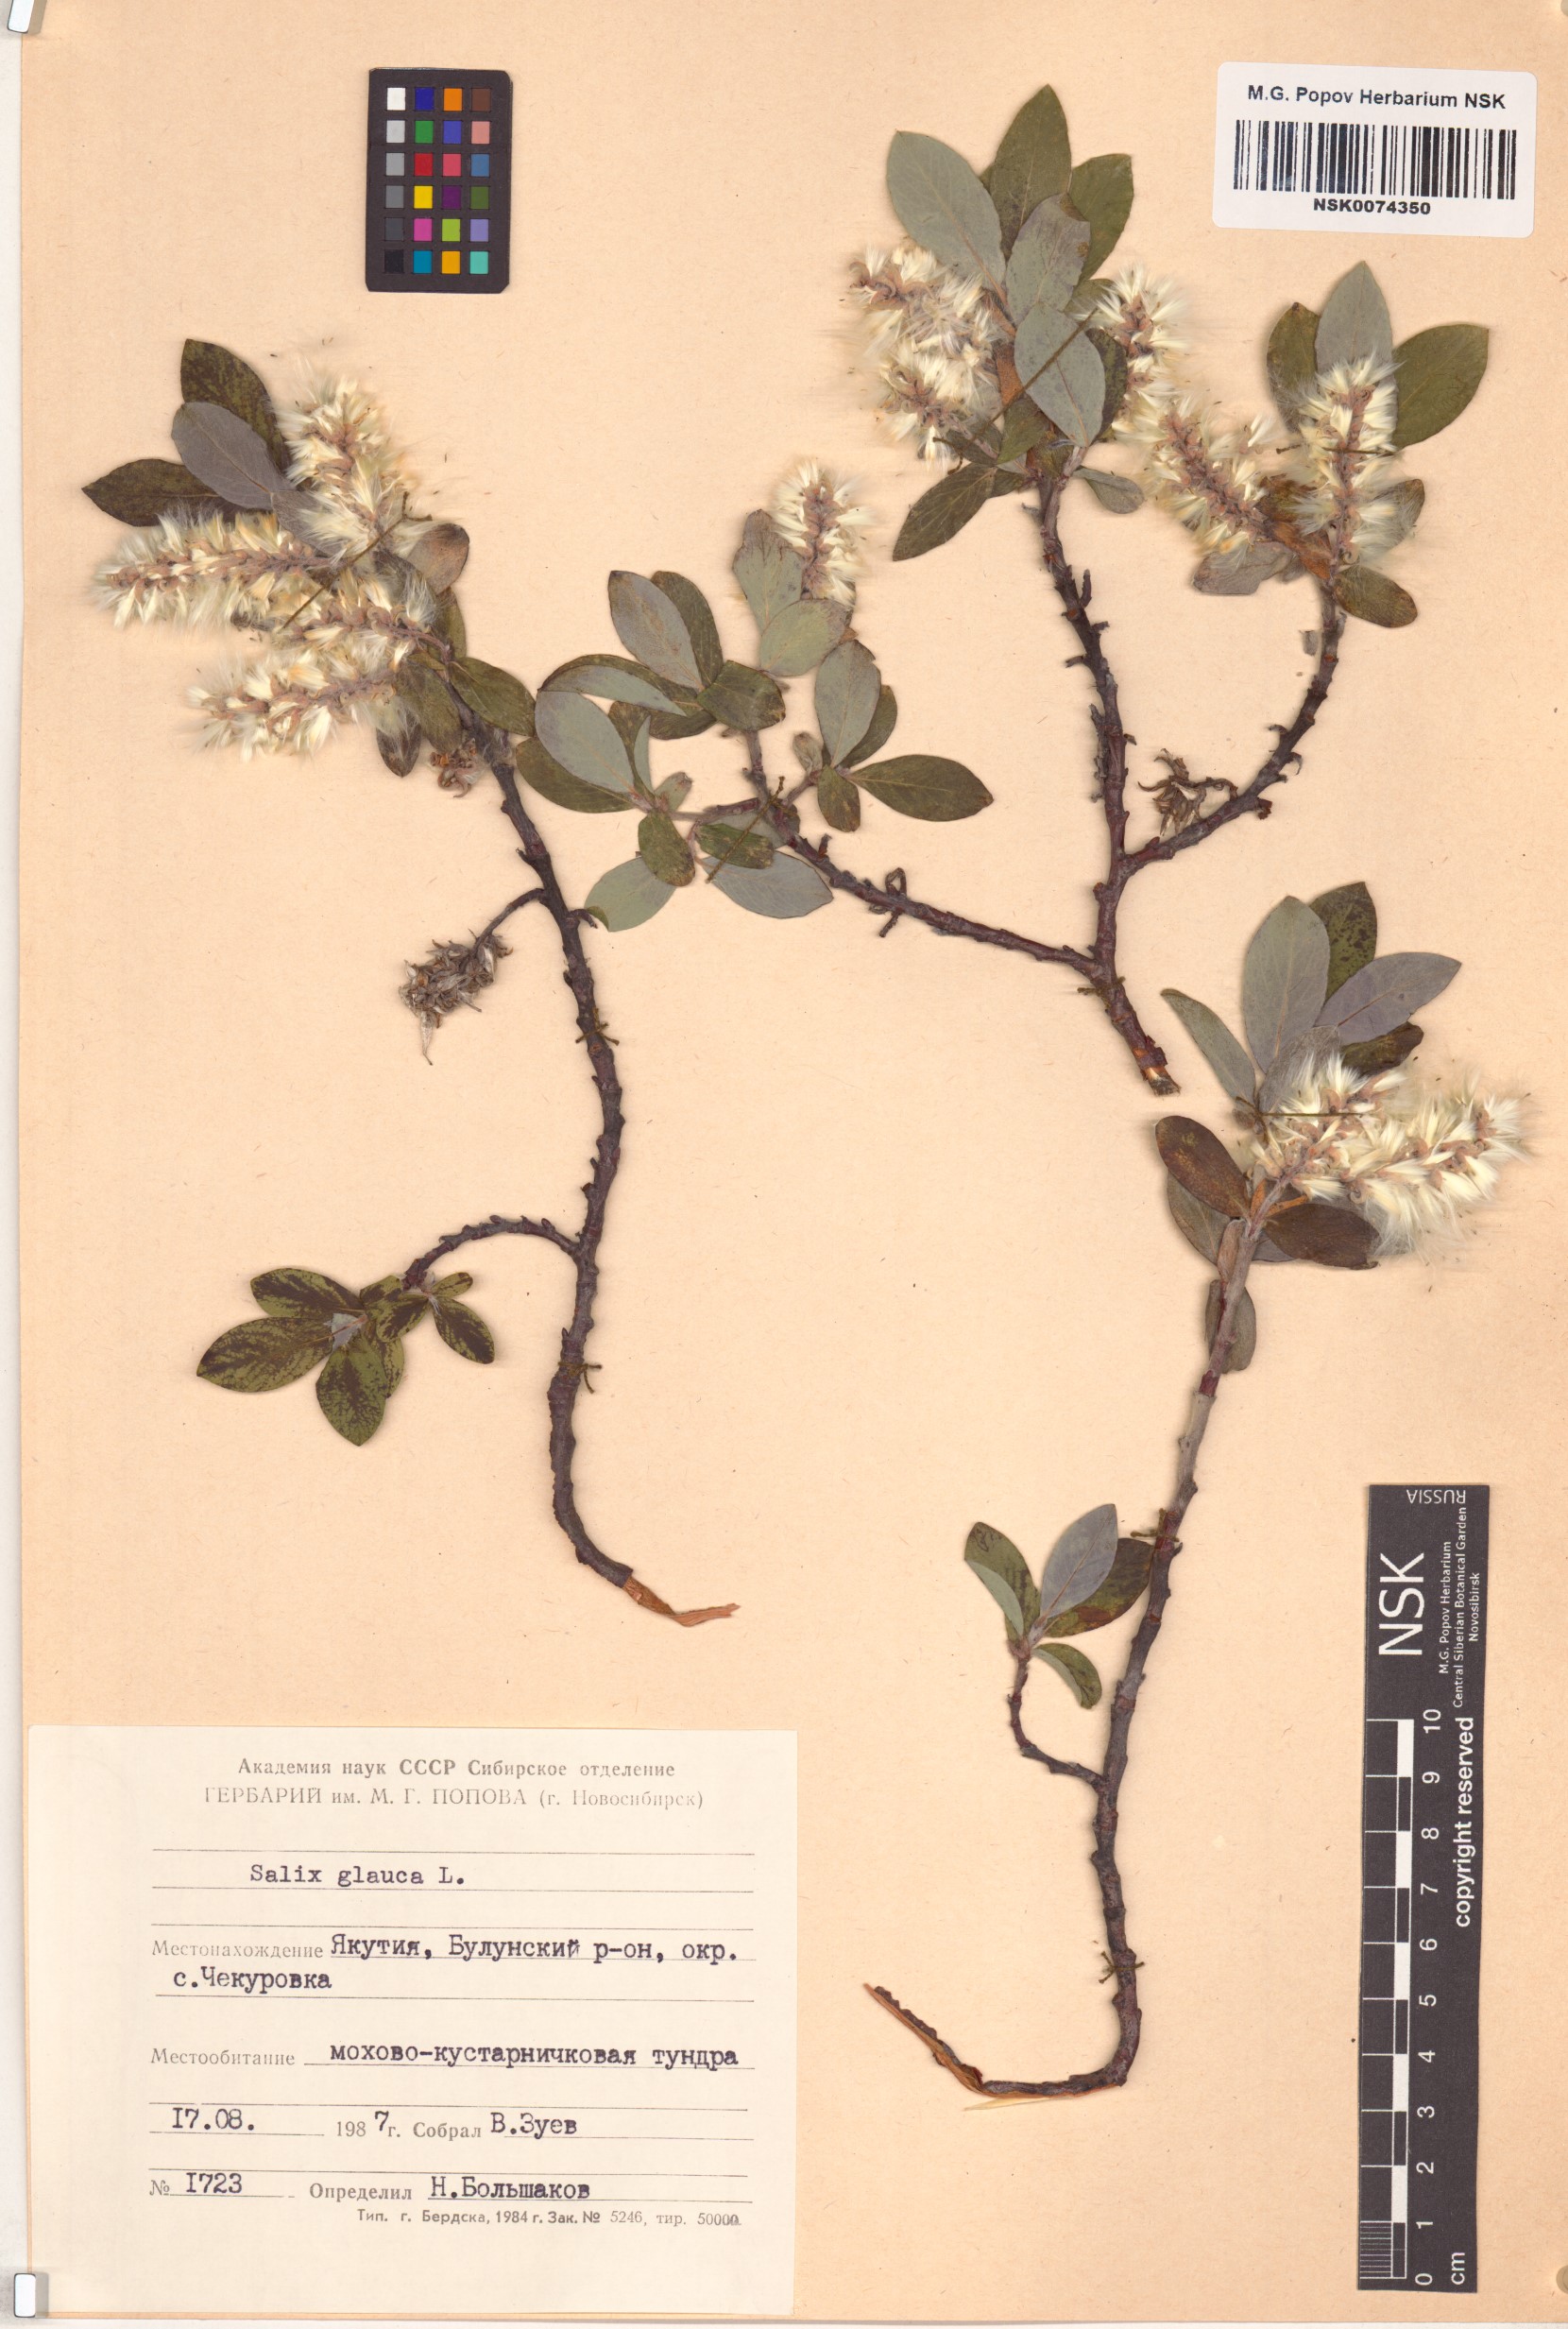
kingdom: Plantae
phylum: Tracheophyta
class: Magnoliopsida
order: Malpighiales
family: Salicaceae
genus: Salix
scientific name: Salix glauca
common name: Glaucous willow
